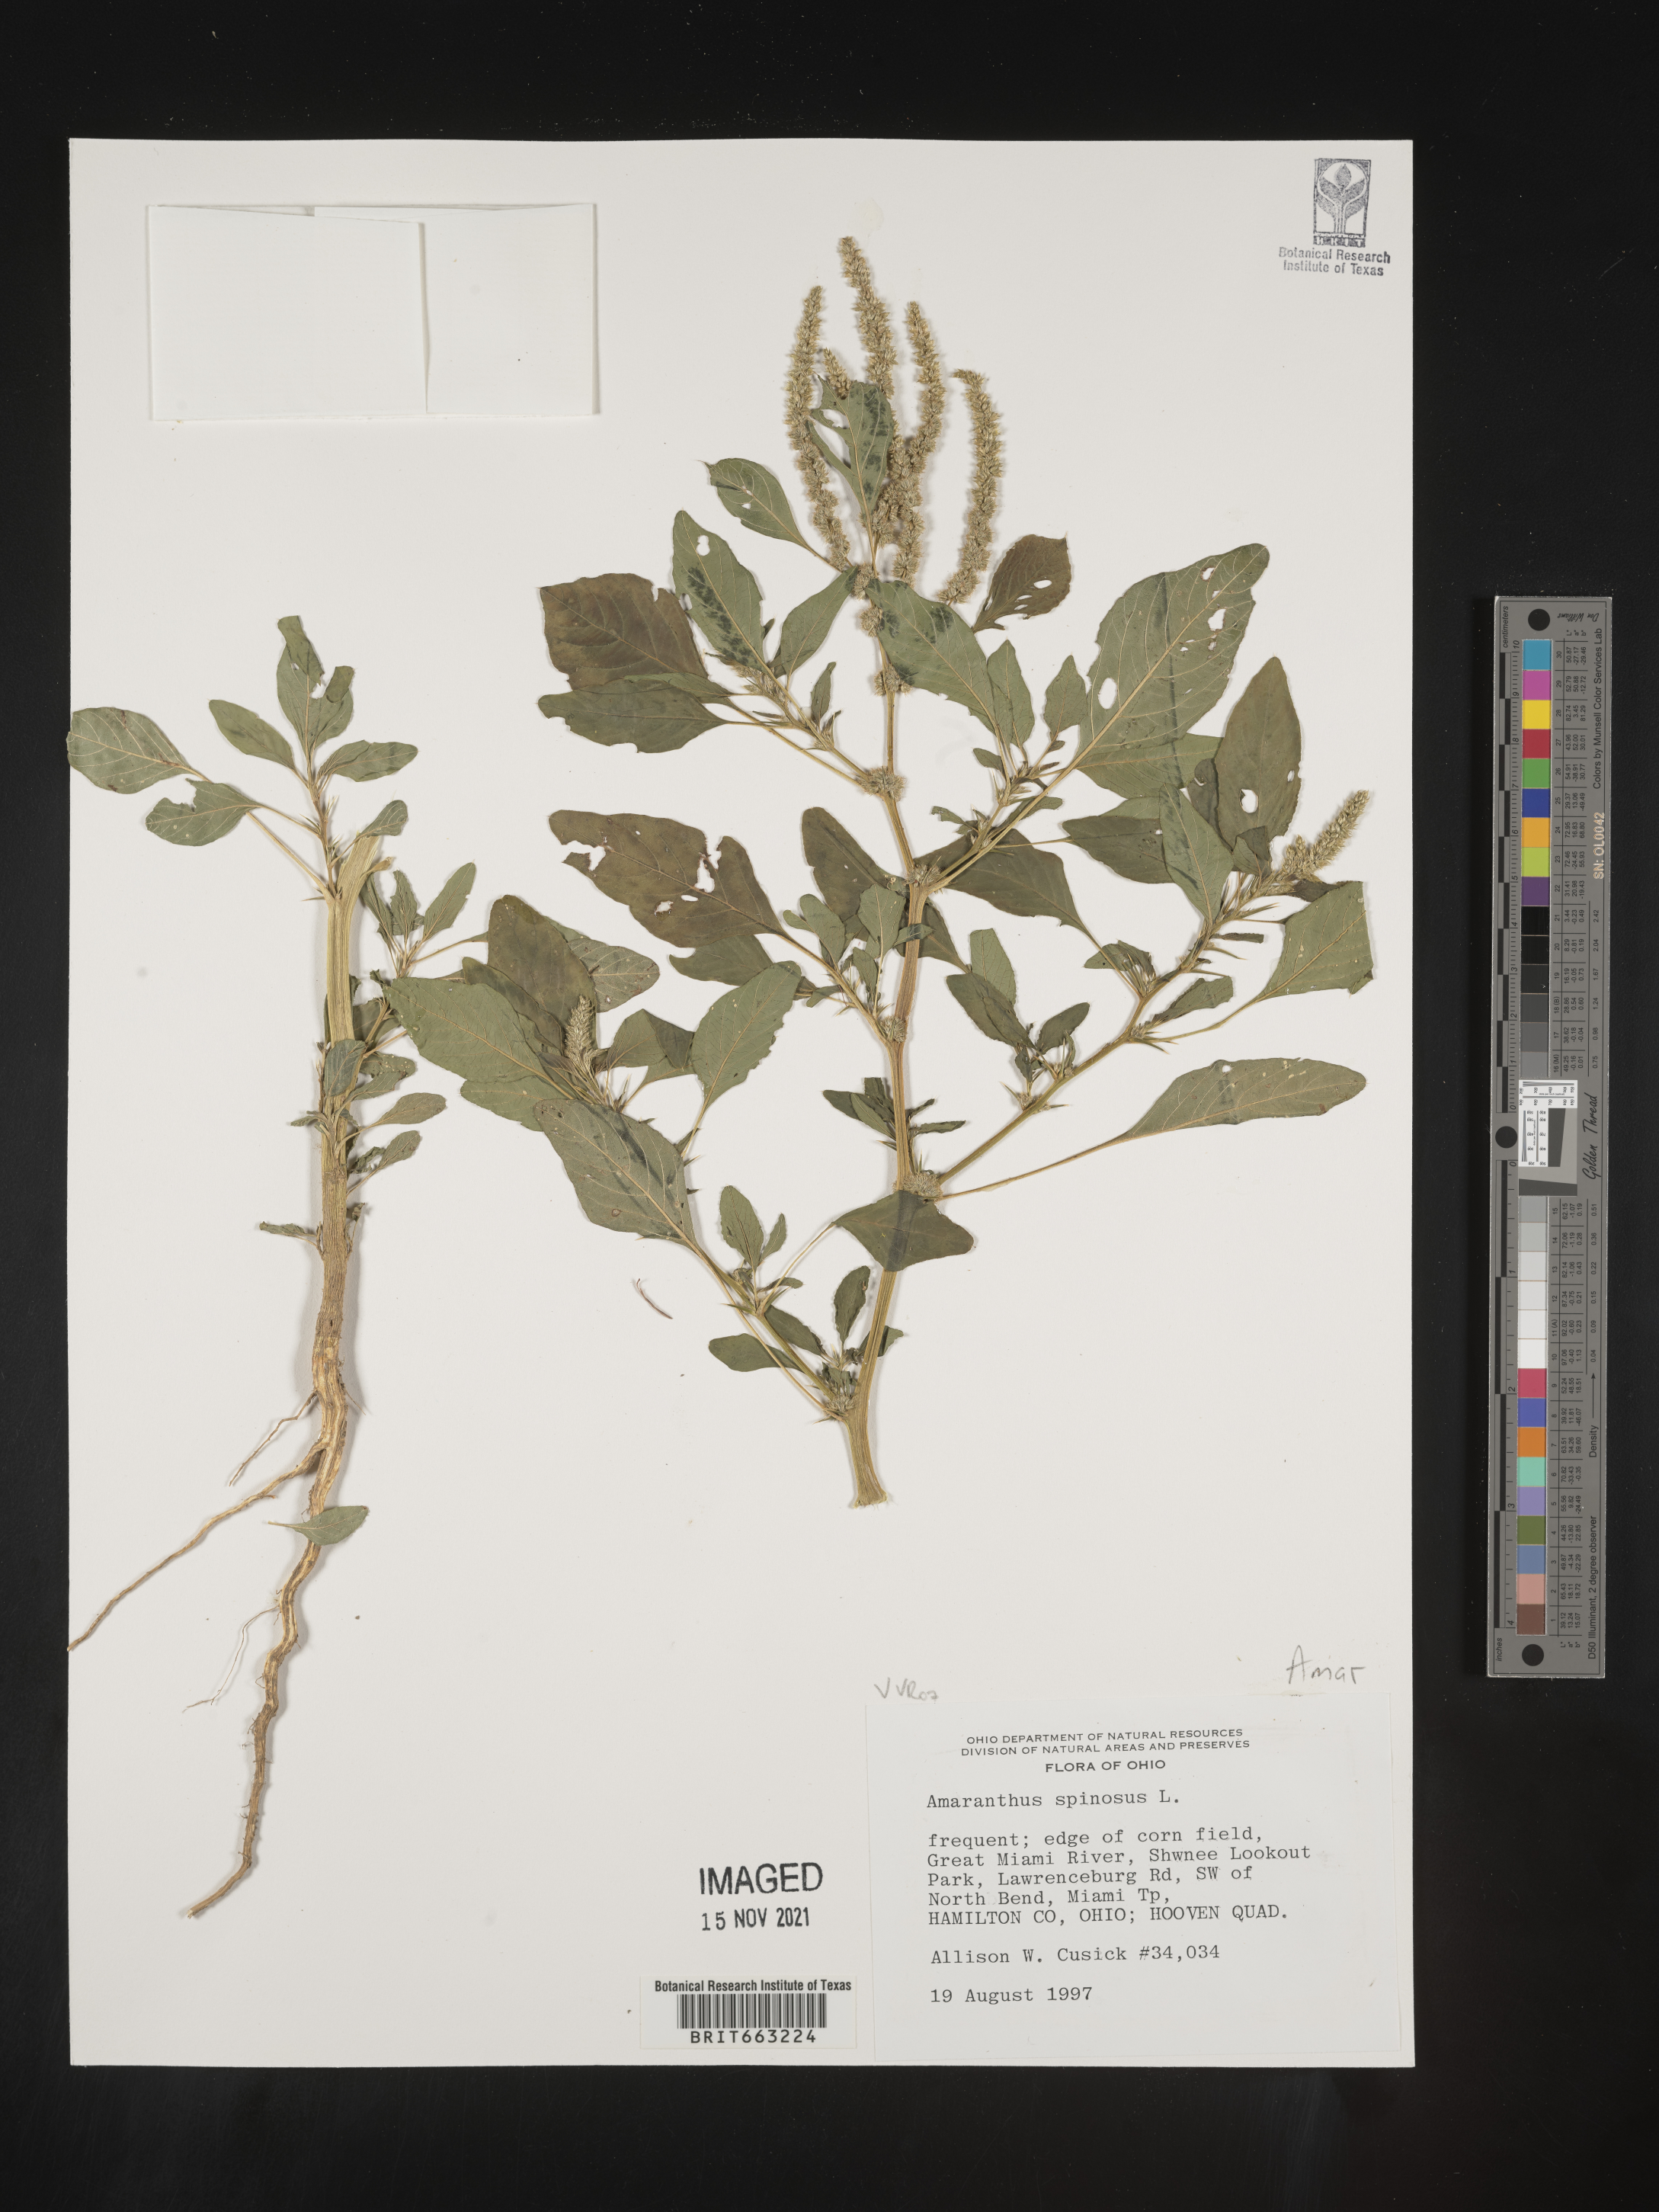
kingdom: Plantae
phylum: Tracheophyta
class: Magnoliopsida
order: Caryophyllales
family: Amaranthaceae
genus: Amaranthus
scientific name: Amaranthus spinosus
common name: Spiny amaranth
